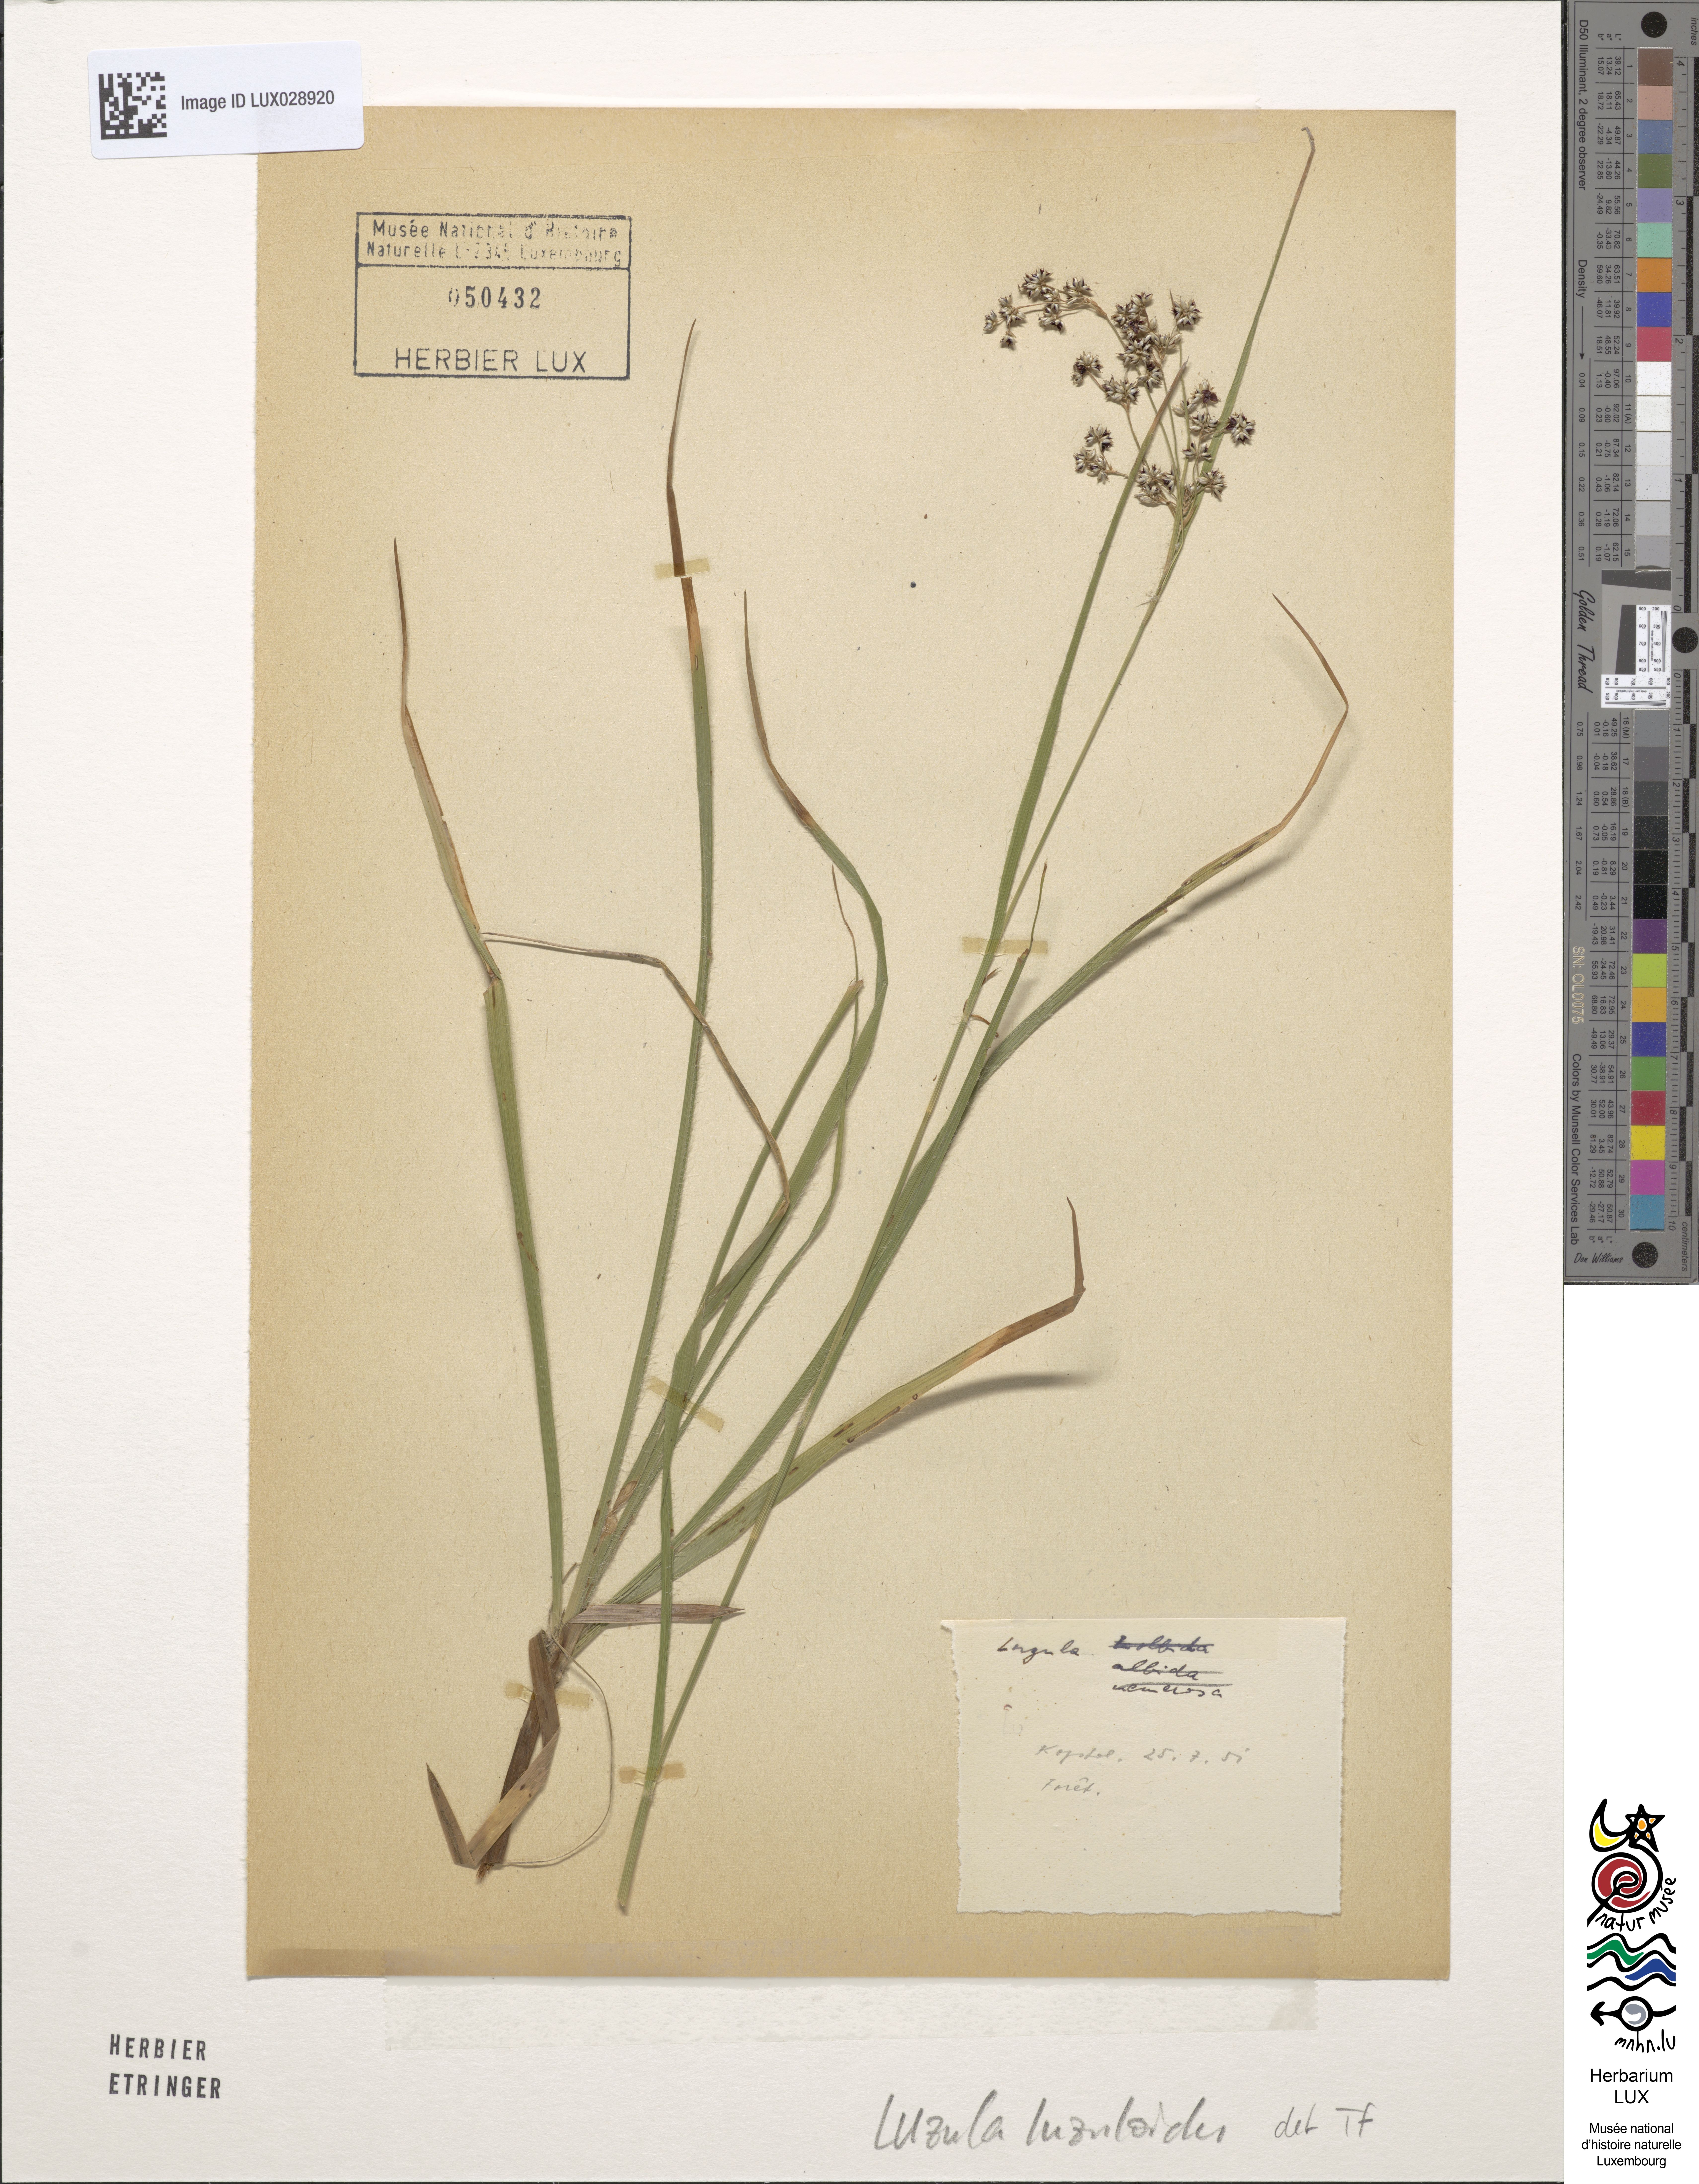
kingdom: Plantae
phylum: Tracheophyta
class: Liliopsida
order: Poales
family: Juncaceae
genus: Luzula
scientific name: Luzula luzuloides
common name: White wood-rush
